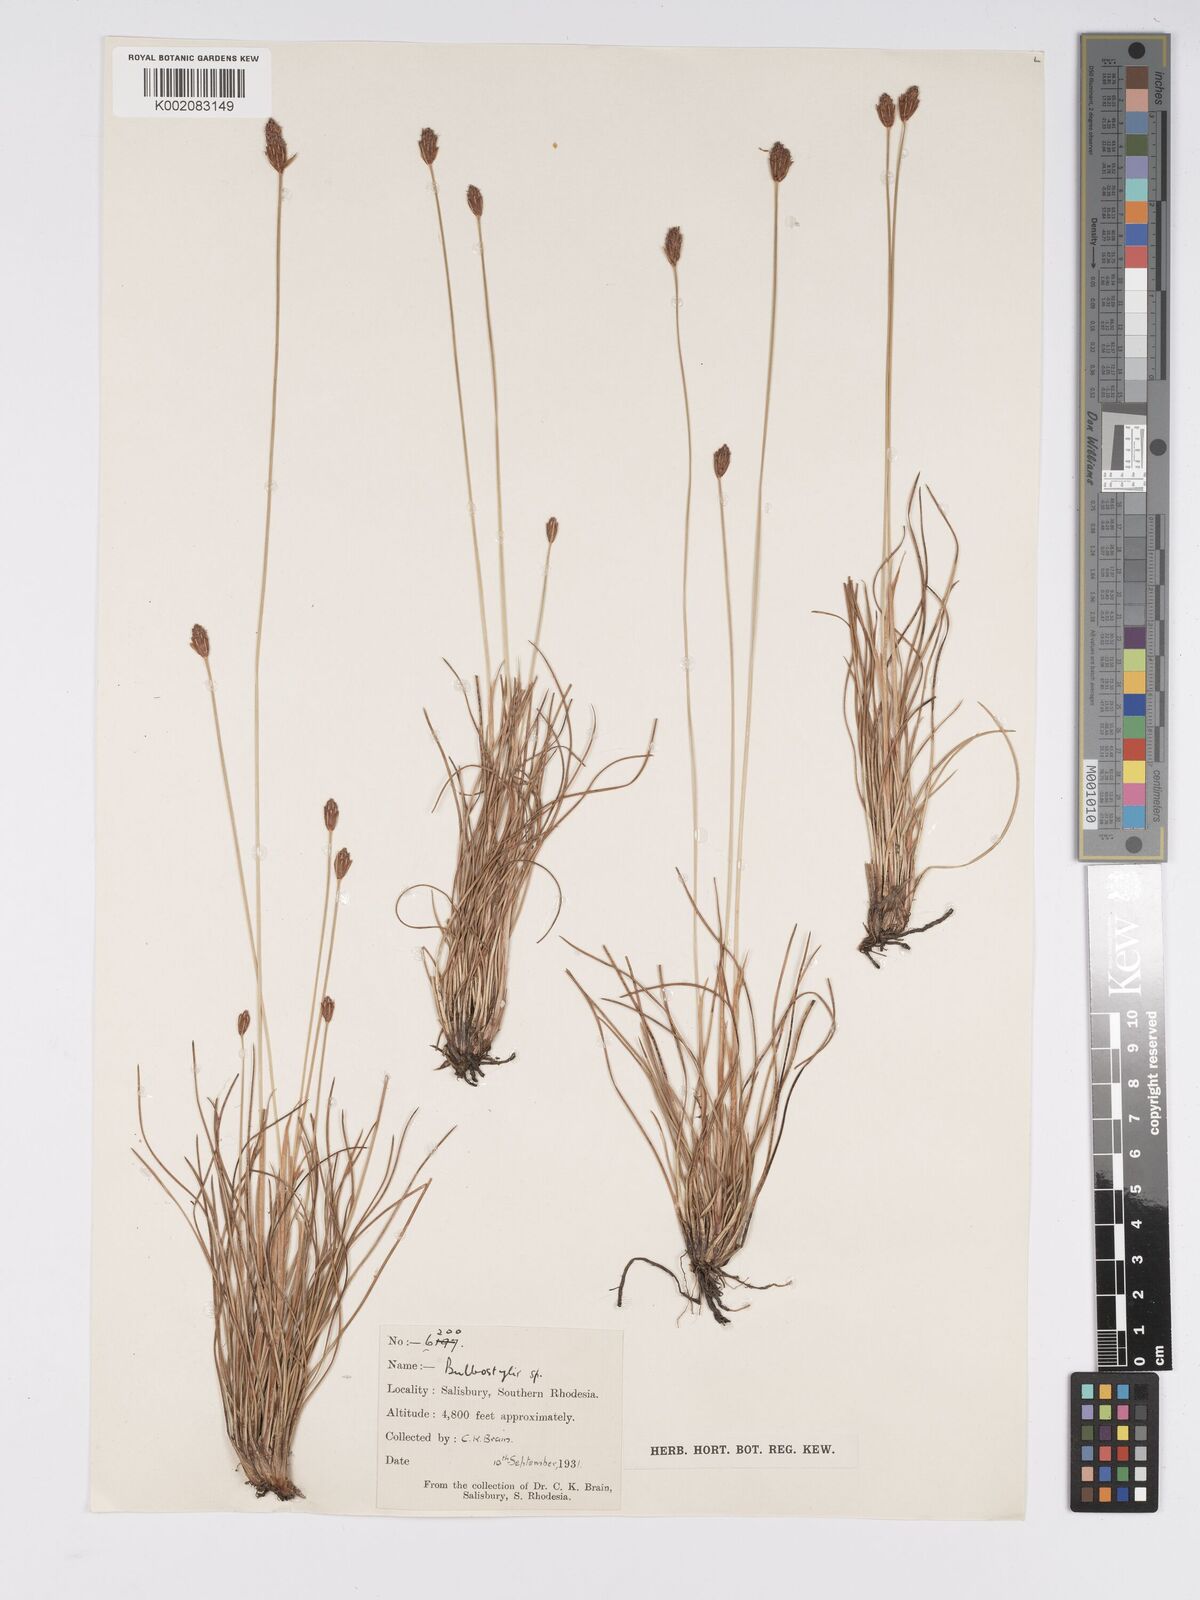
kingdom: Plantae
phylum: Tracheophyta
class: Liliopsida
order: Poales
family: Cyperaceae
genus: Bulbostylis
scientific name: Bulbostylis schoenoides
